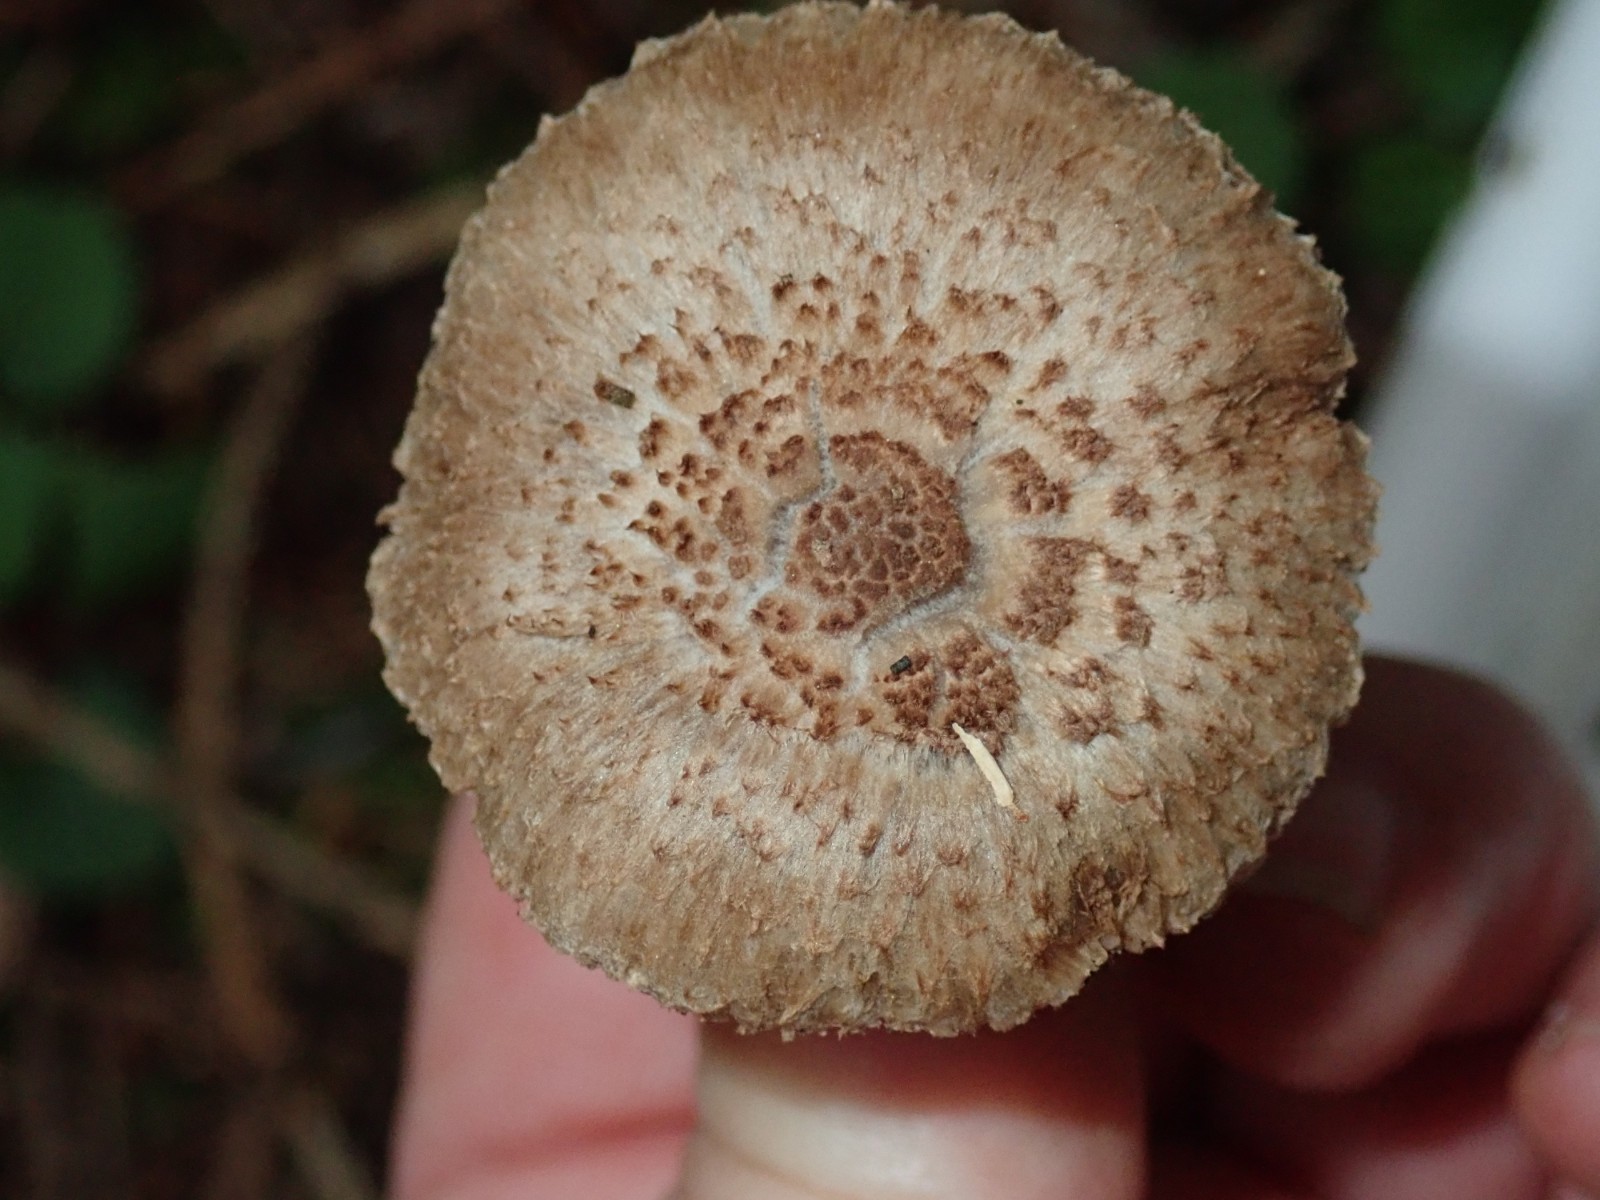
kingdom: Fungi
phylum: Basidiomycota
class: Agaricomycetes
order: Agaricales
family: Inocybaceae
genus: Inocybe
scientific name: Inocybe cincinnata
